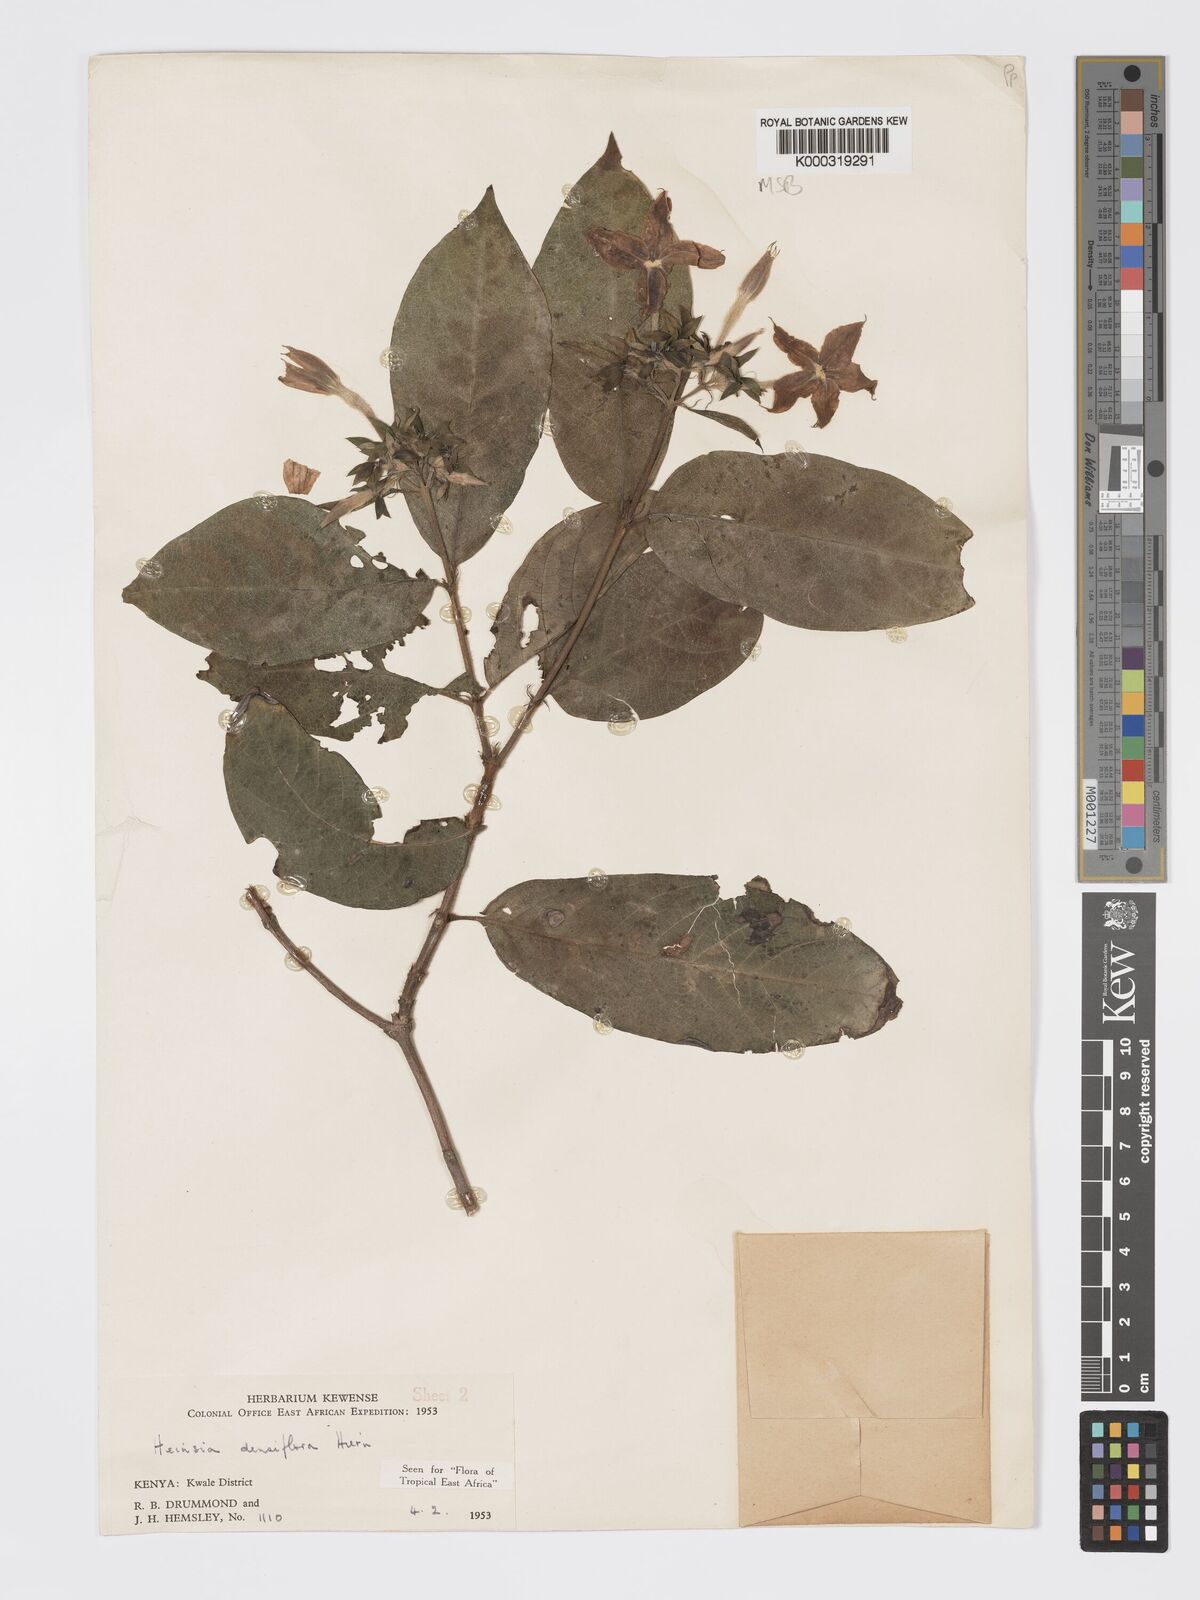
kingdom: Plantae
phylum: Tracheophyta
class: Magnoliopsida
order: Gentianales
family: Rubiaceae
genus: Heinsia
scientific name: Heinsia zanzibarica
